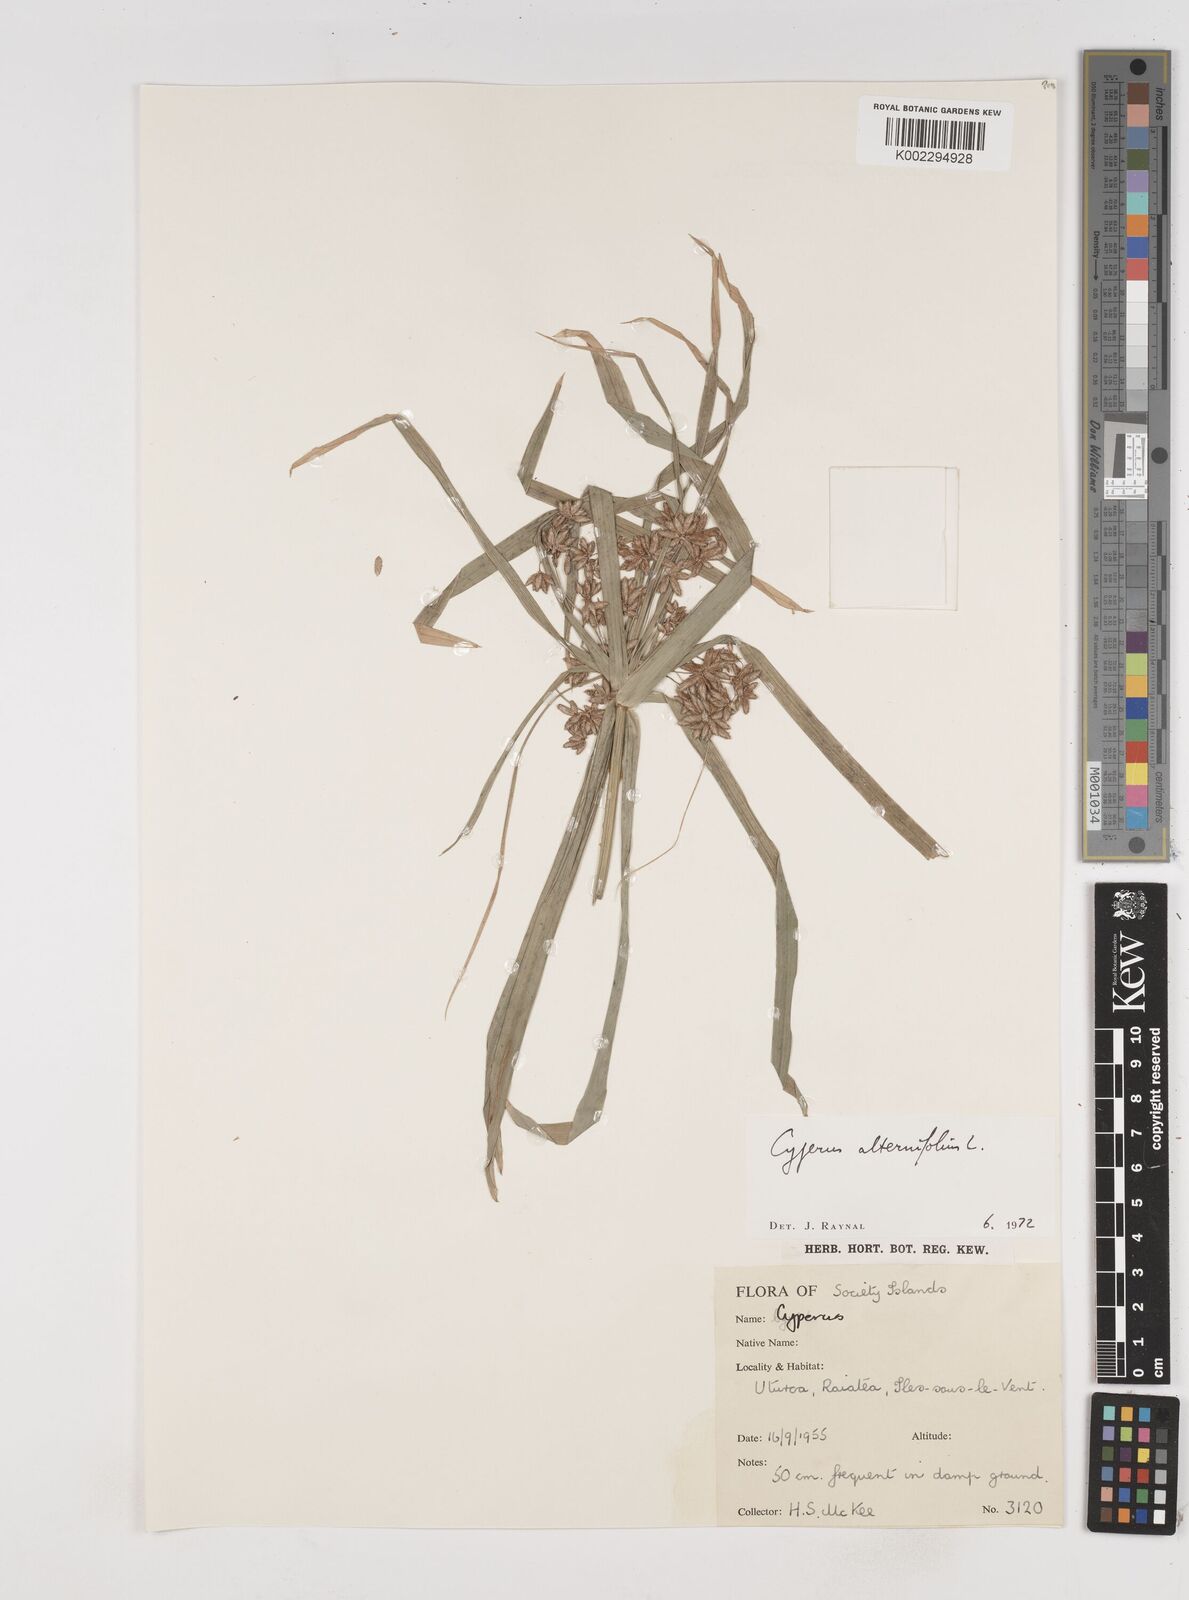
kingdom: Plantae
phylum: Tracheophyta
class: Liliopsida
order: Poales
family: Cyperaceae
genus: Cyperus
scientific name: Cyperus alternifolius
